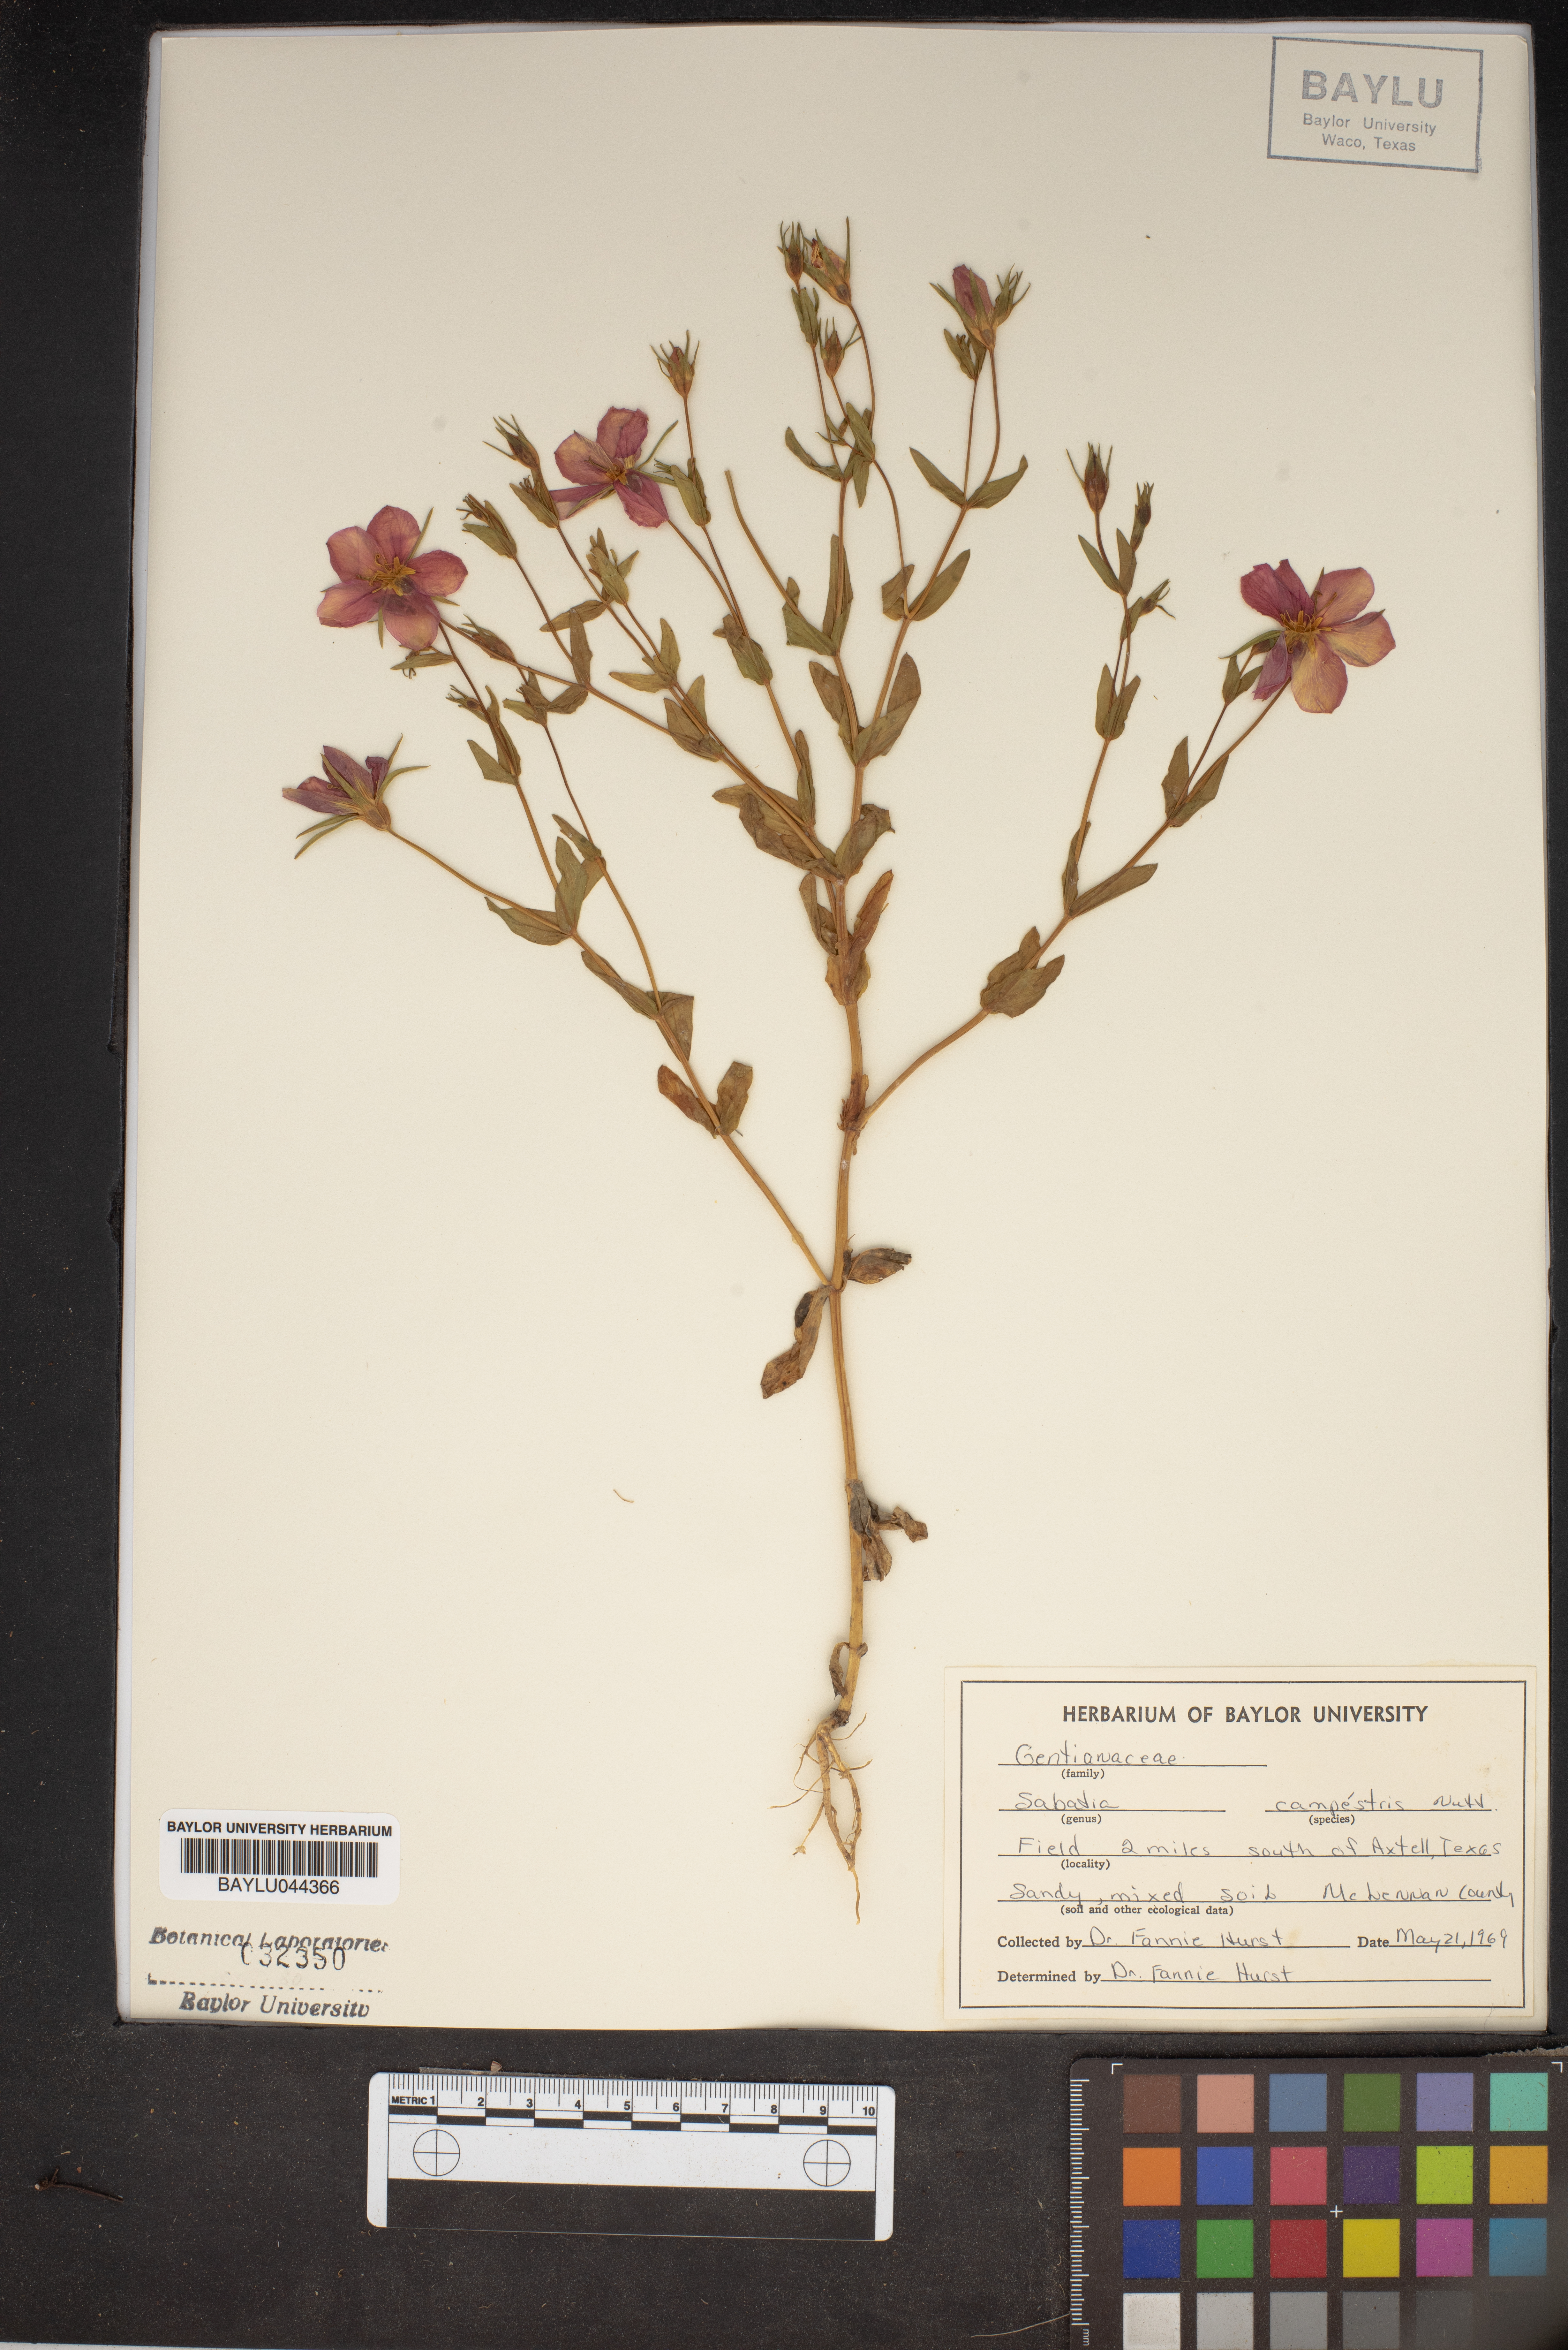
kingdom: Plantae
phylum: Tracheophyta
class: Magnoliopsida
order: Gentianales
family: Gentianaceae
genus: Sabatia
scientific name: Sabatia campestris
